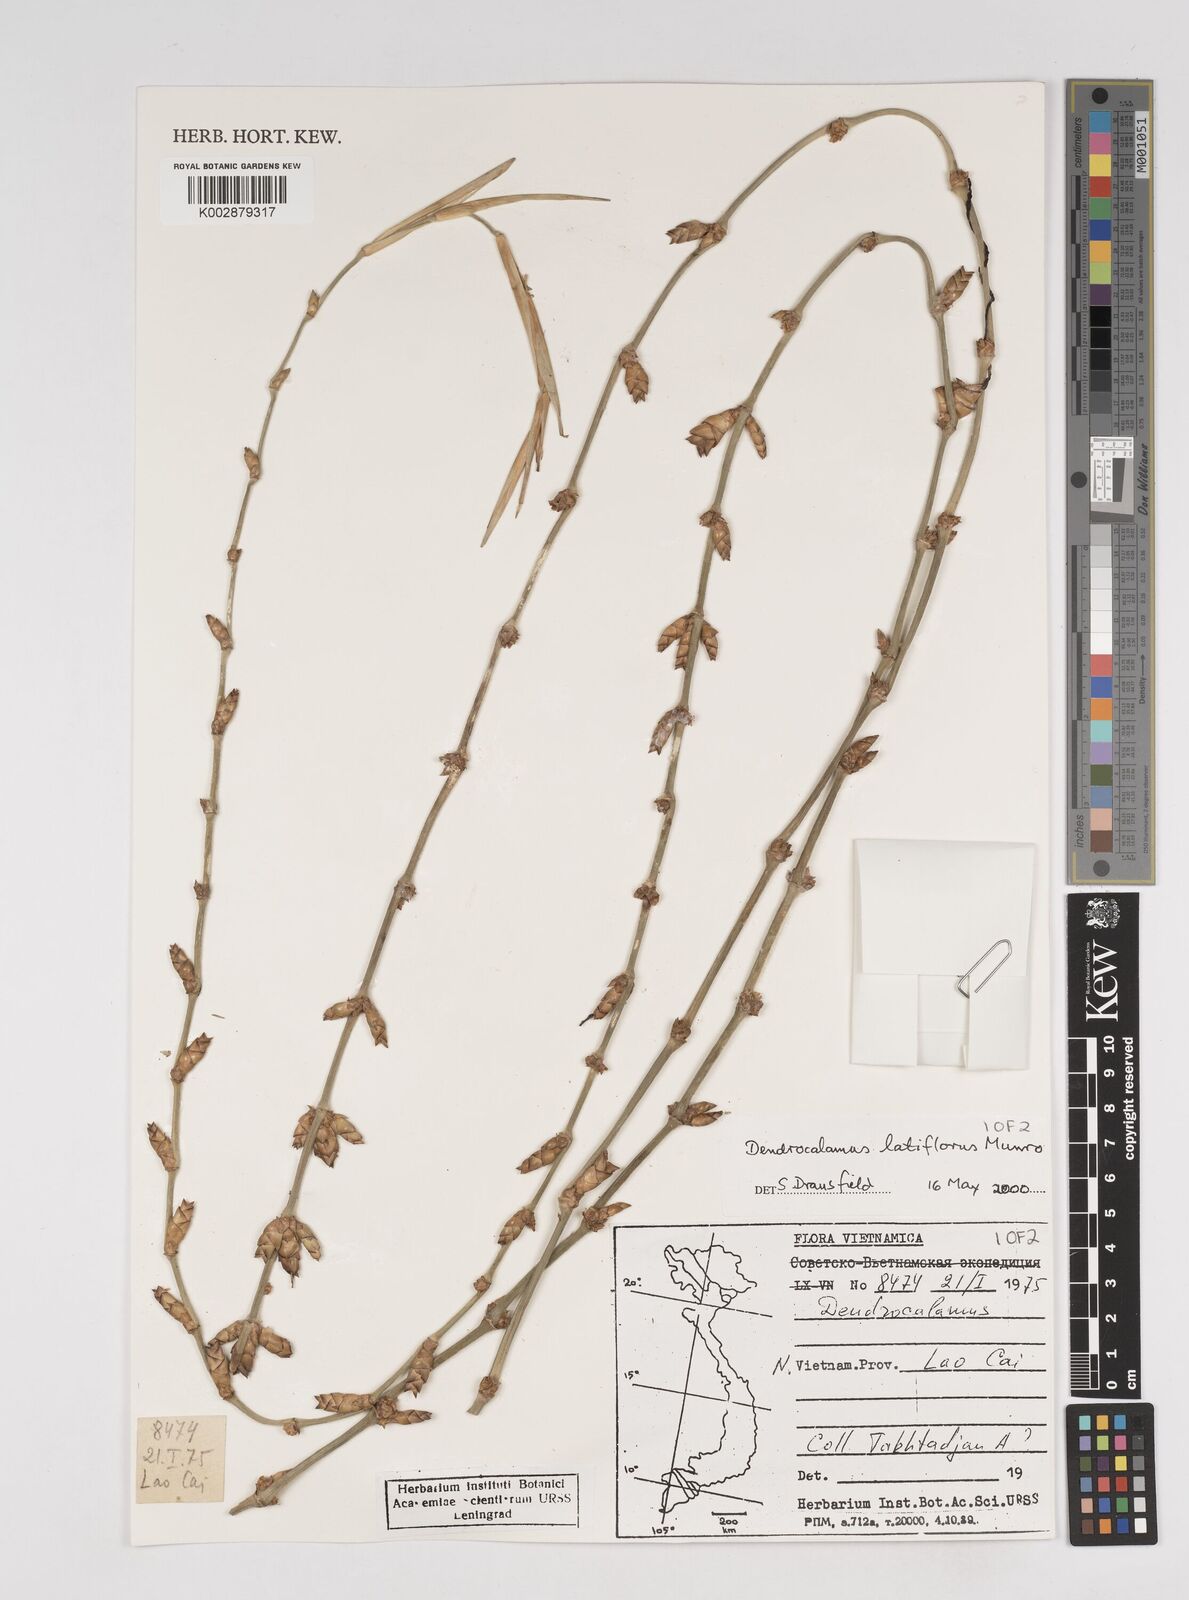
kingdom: Plantae
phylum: Tracheophyta
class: Liliopsida
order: Poales
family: Poaceae
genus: Dendrocalamus
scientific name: Dendrocalamus latiflorus
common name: Giant bamboo
